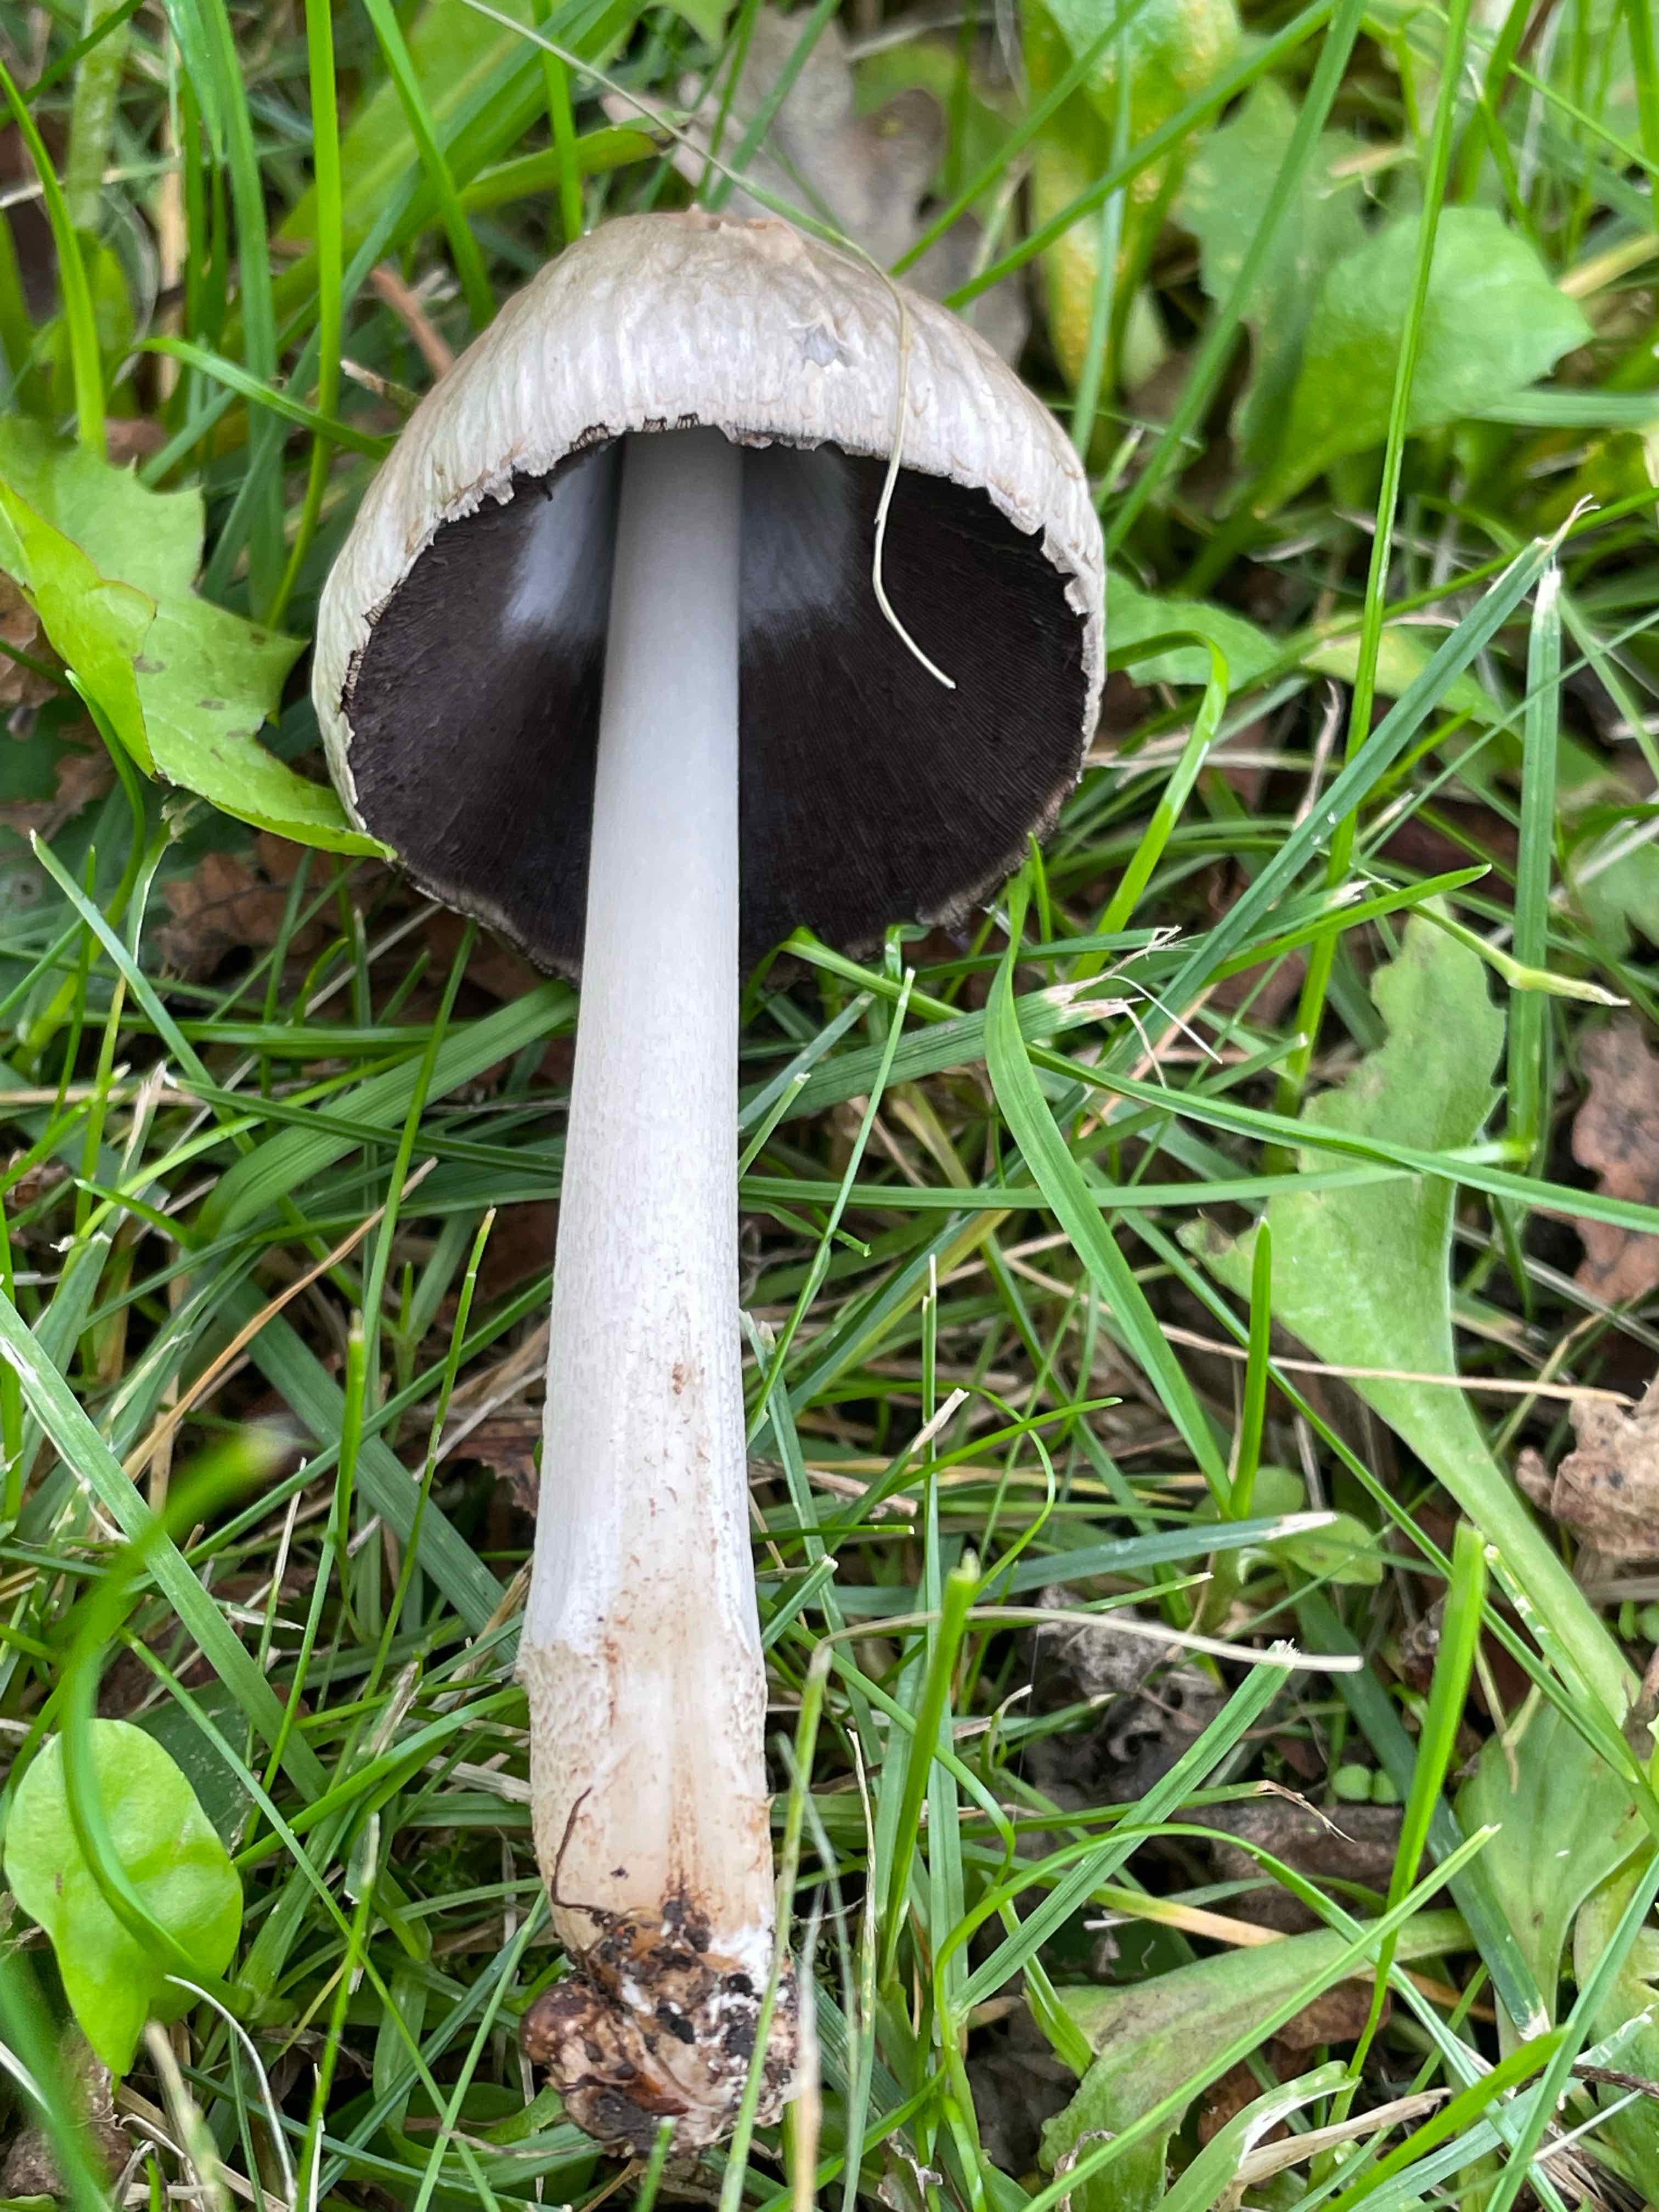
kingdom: Fungi
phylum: Basidiomycota
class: Agaricomycetes
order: Agaricales
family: Psathyrellaceae
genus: Coprinopsis
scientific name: Coprinopsis atramentaria
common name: almindelig blækhat
